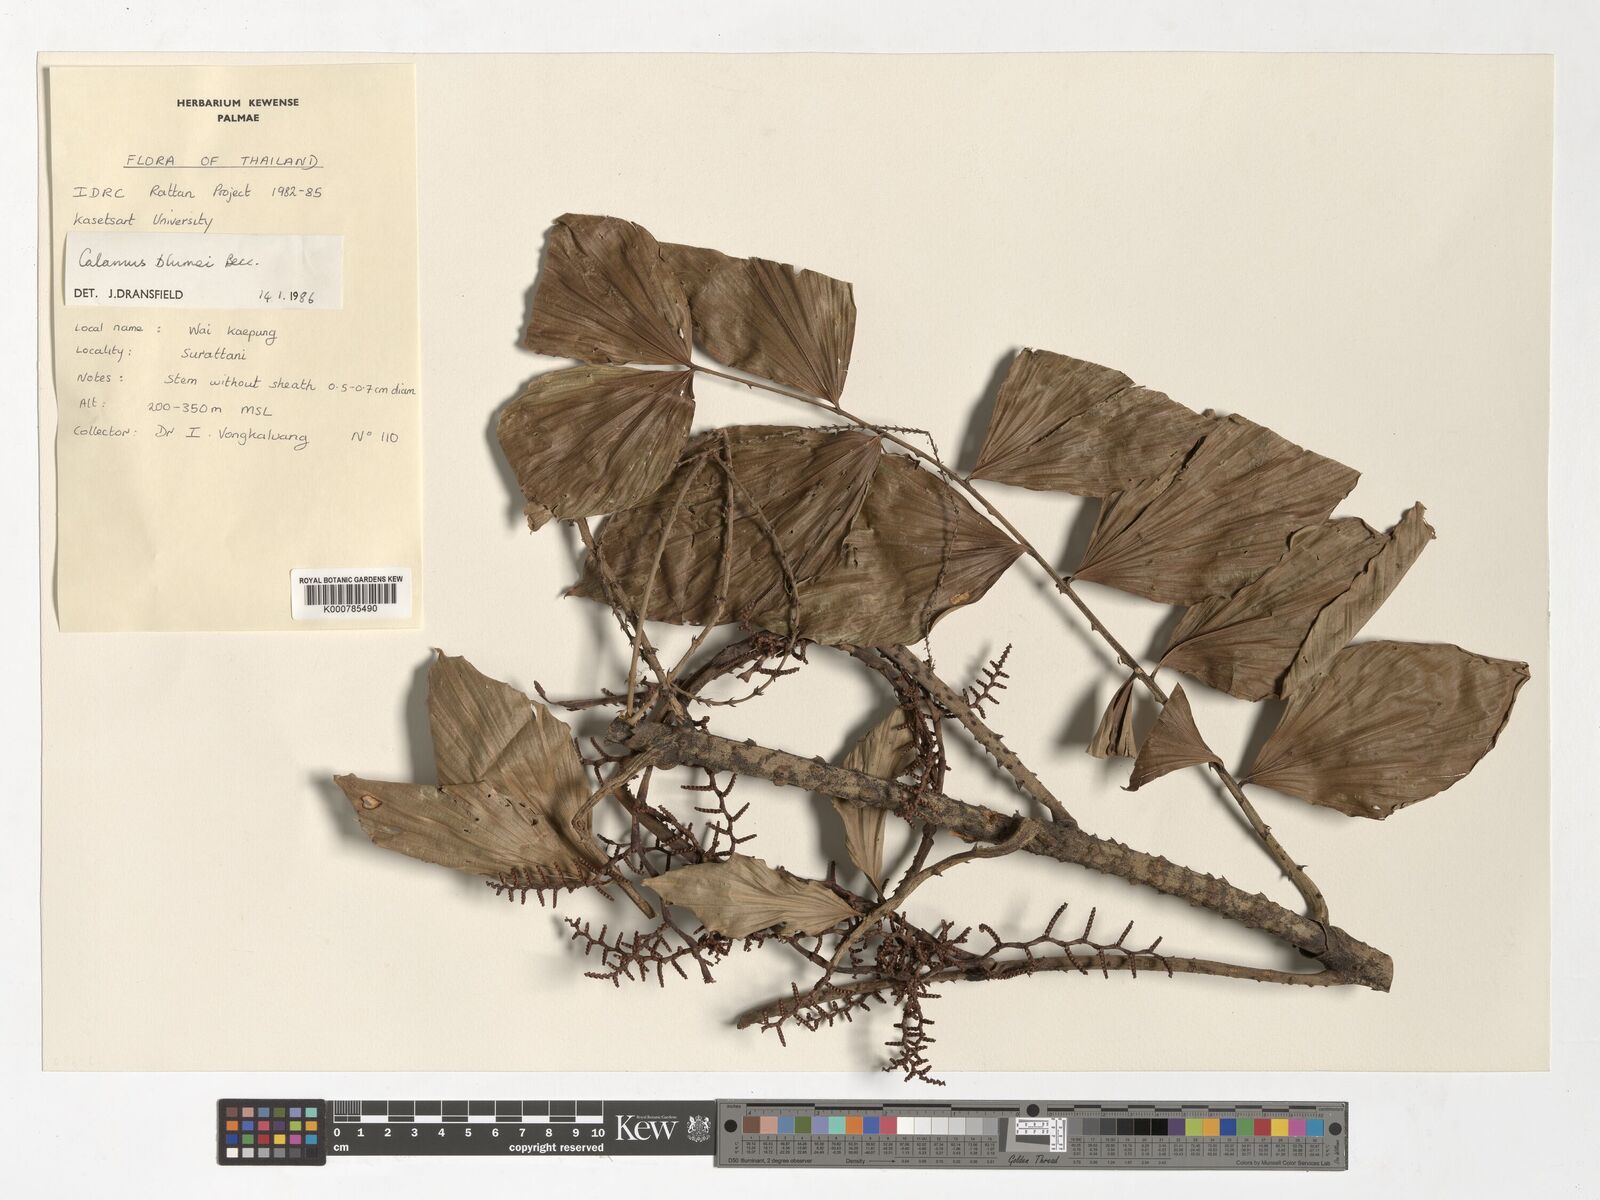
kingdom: Plantae
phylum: Tracheophyta
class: Liliopsida
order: Arecales
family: Arecaceae
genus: Calamus
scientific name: Calamus rhomboideus
